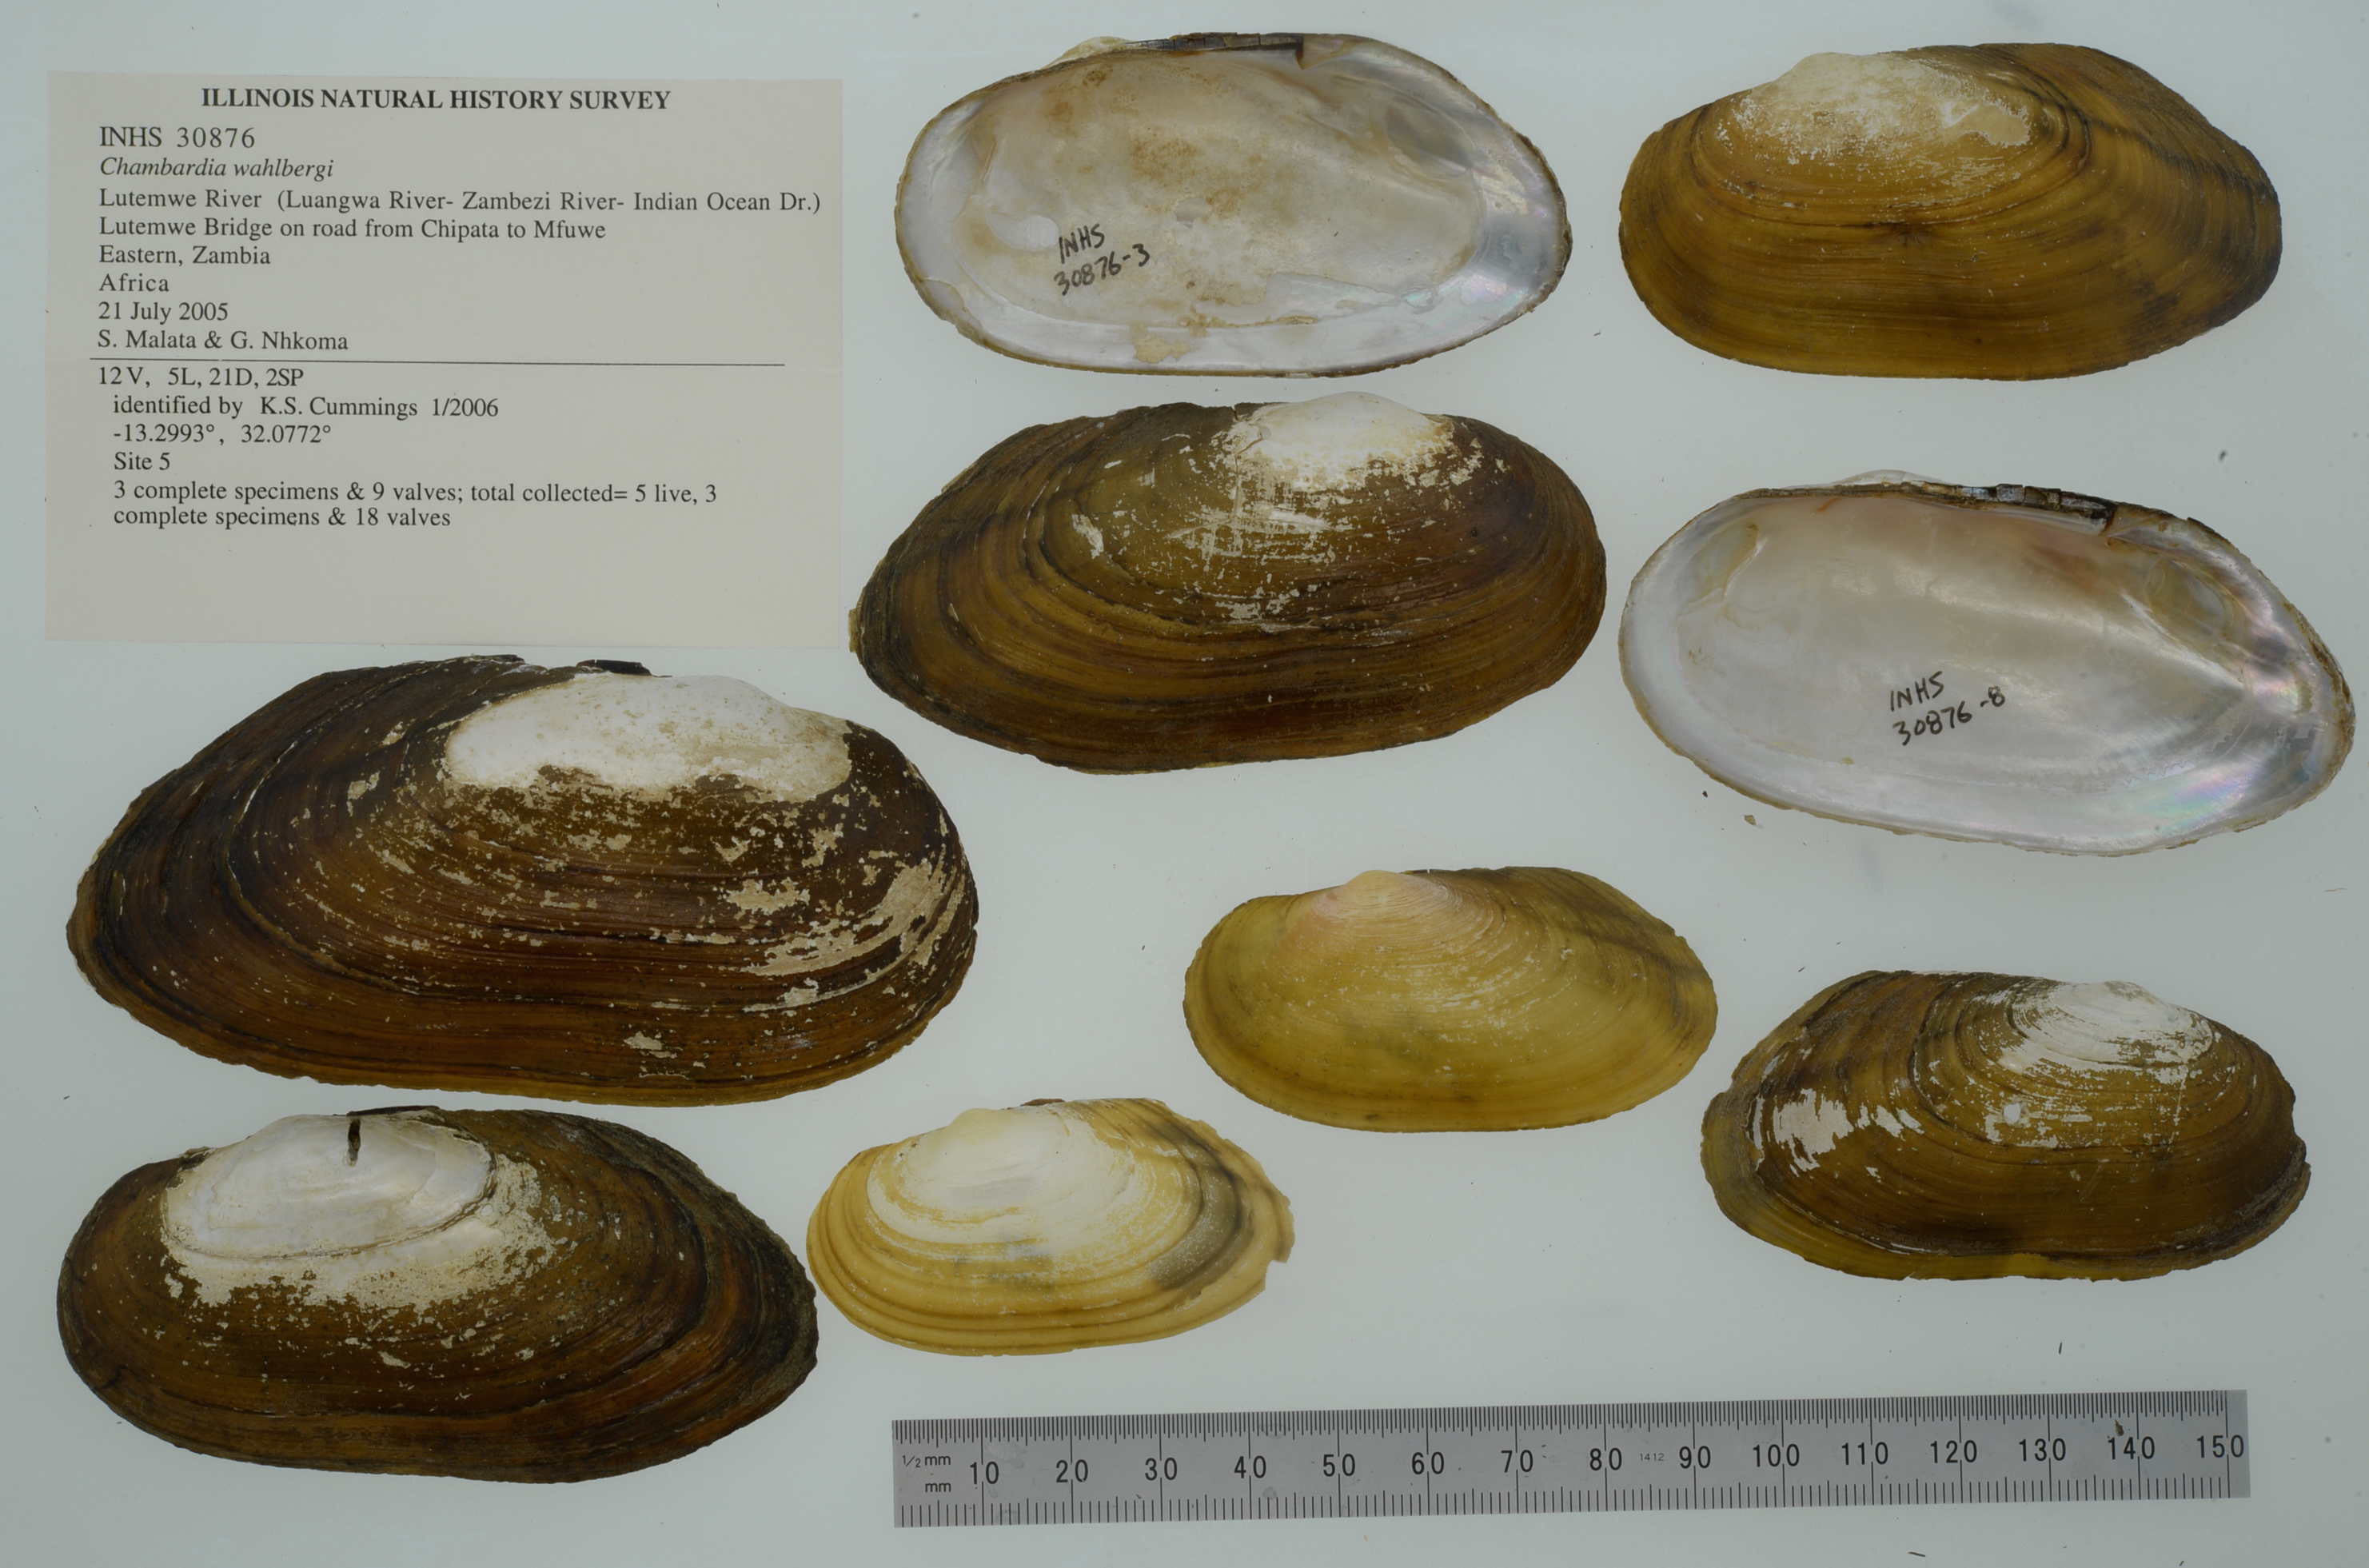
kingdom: Animalia
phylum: Mollusca
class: Bivalvia
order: Unionida
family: Iridinidae
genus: Chambardia
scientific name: Chambardia wahlbergi
